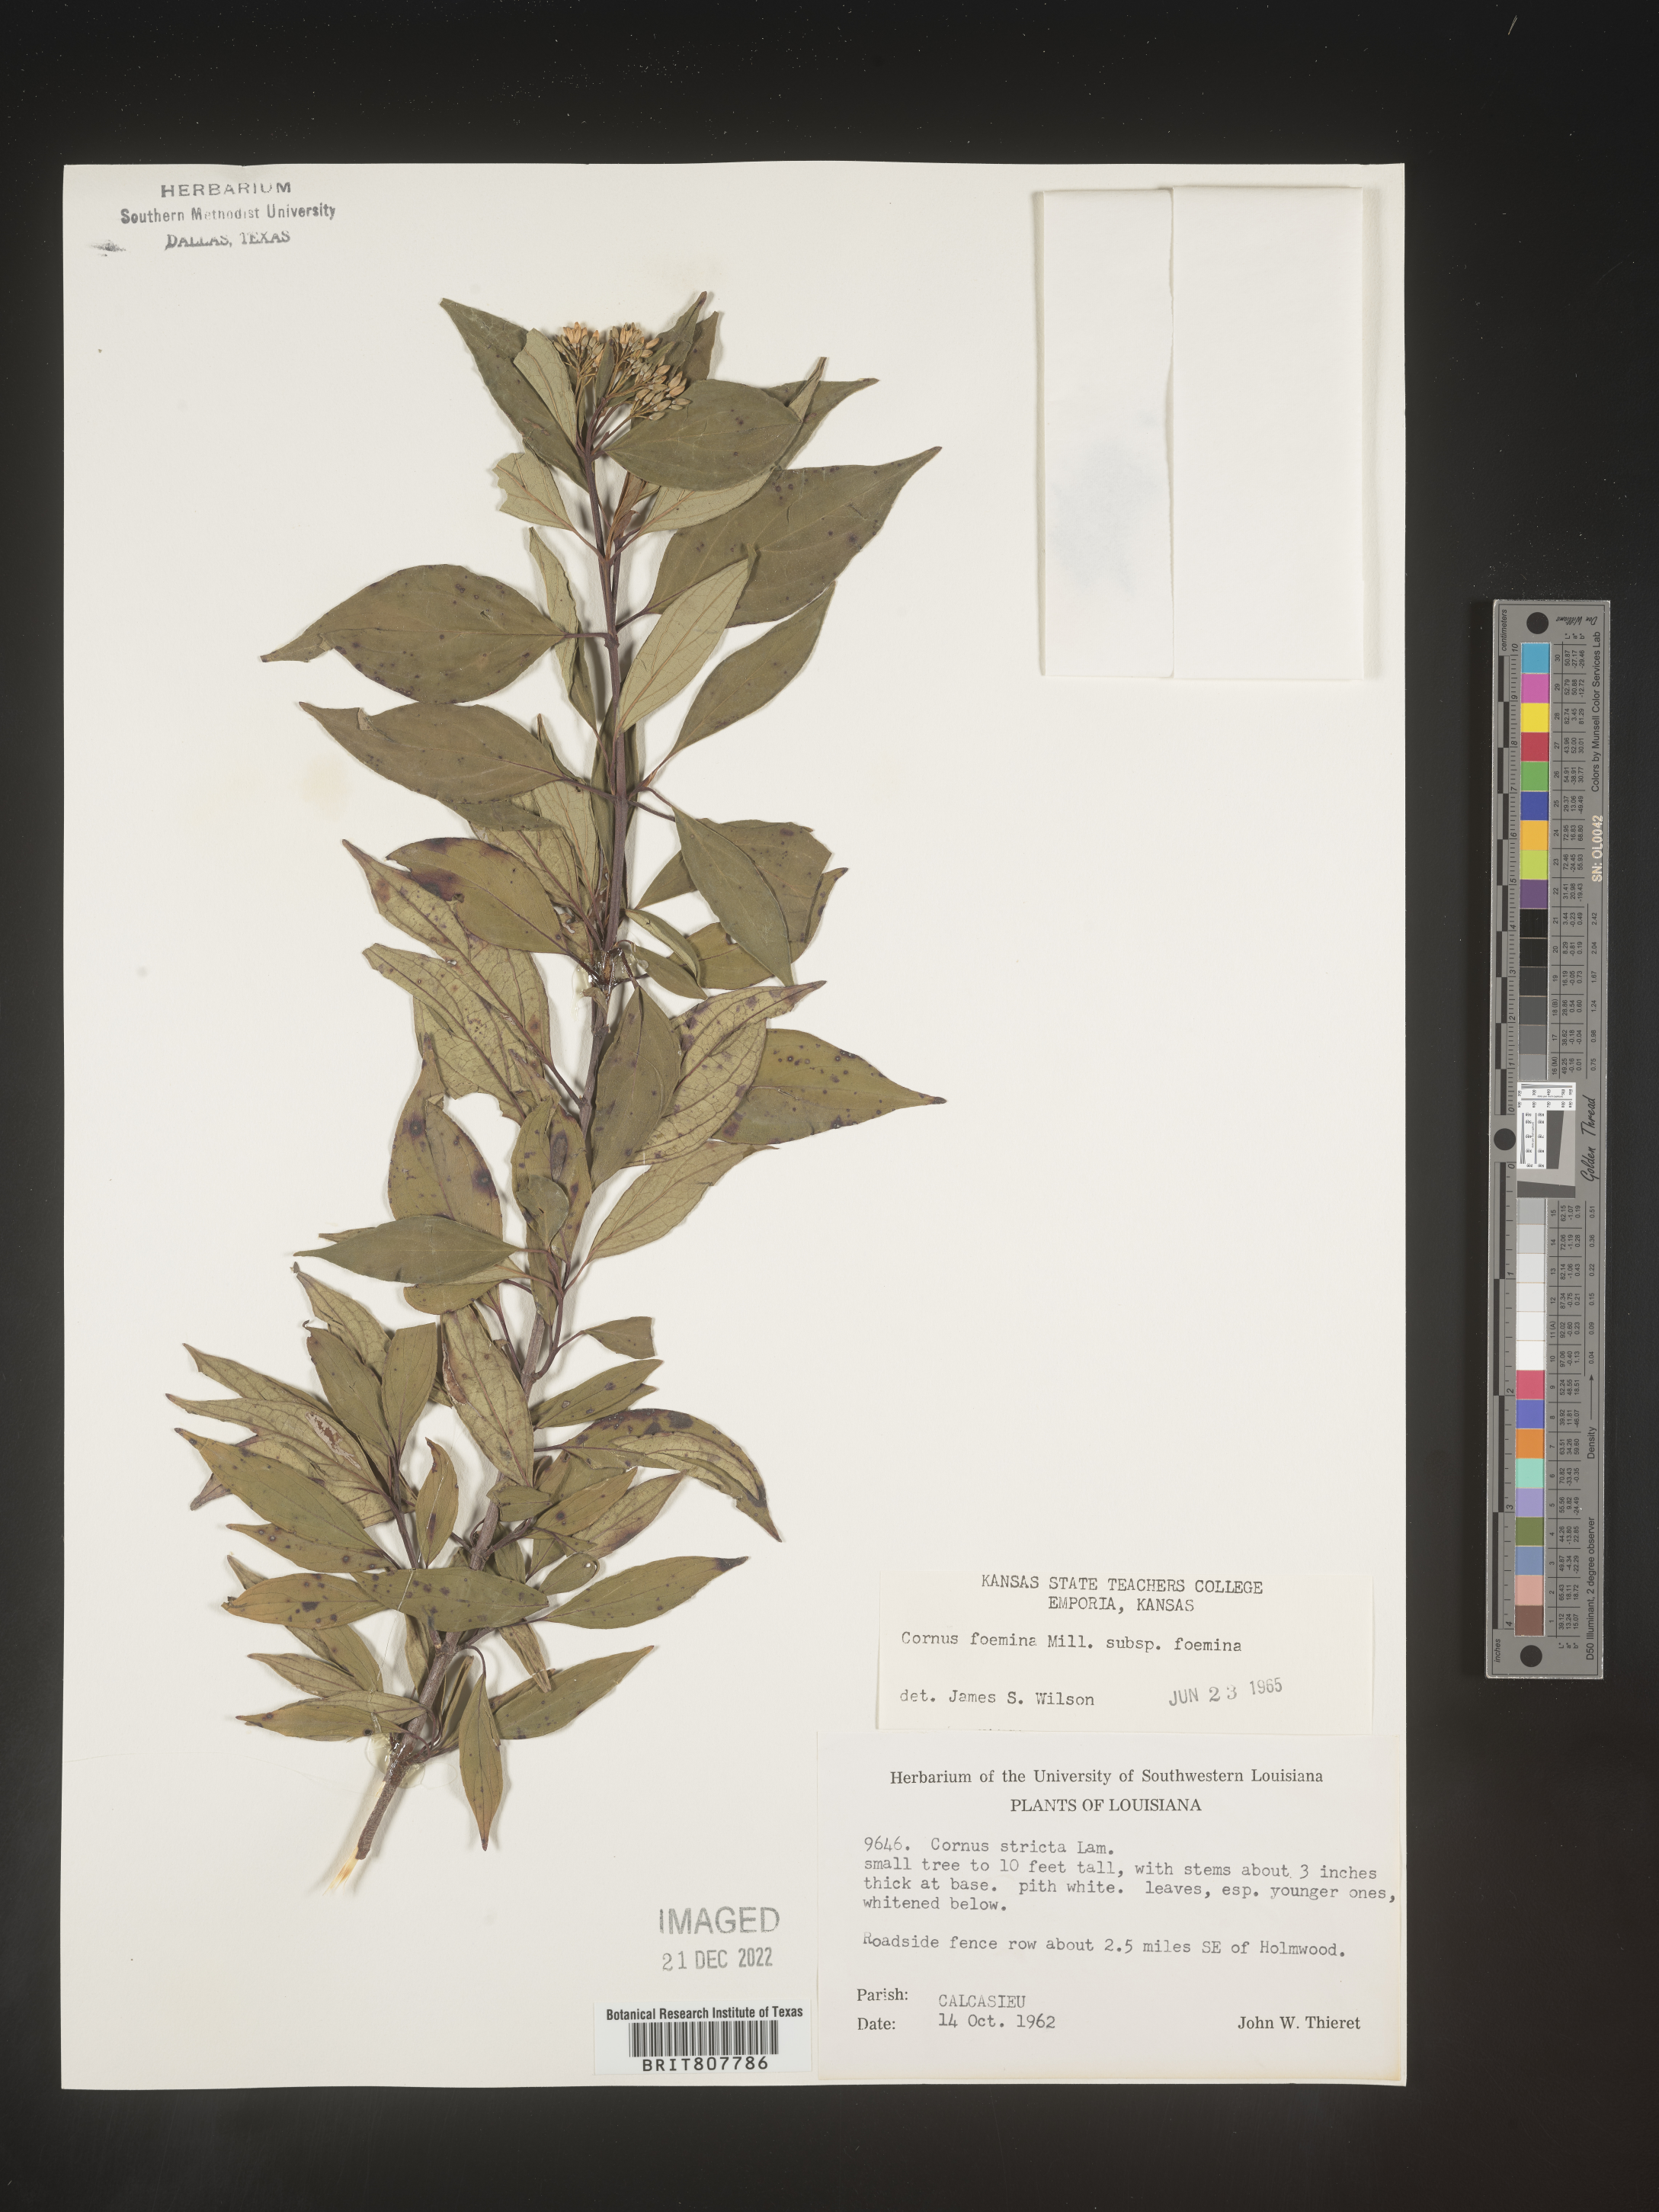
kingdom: Plantae
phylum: Tracheophyta
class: Magnoliopsida
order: Cornales
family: Cornaceae
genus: Cornus
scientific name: Cornus foemina
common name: Swamp dogwood
